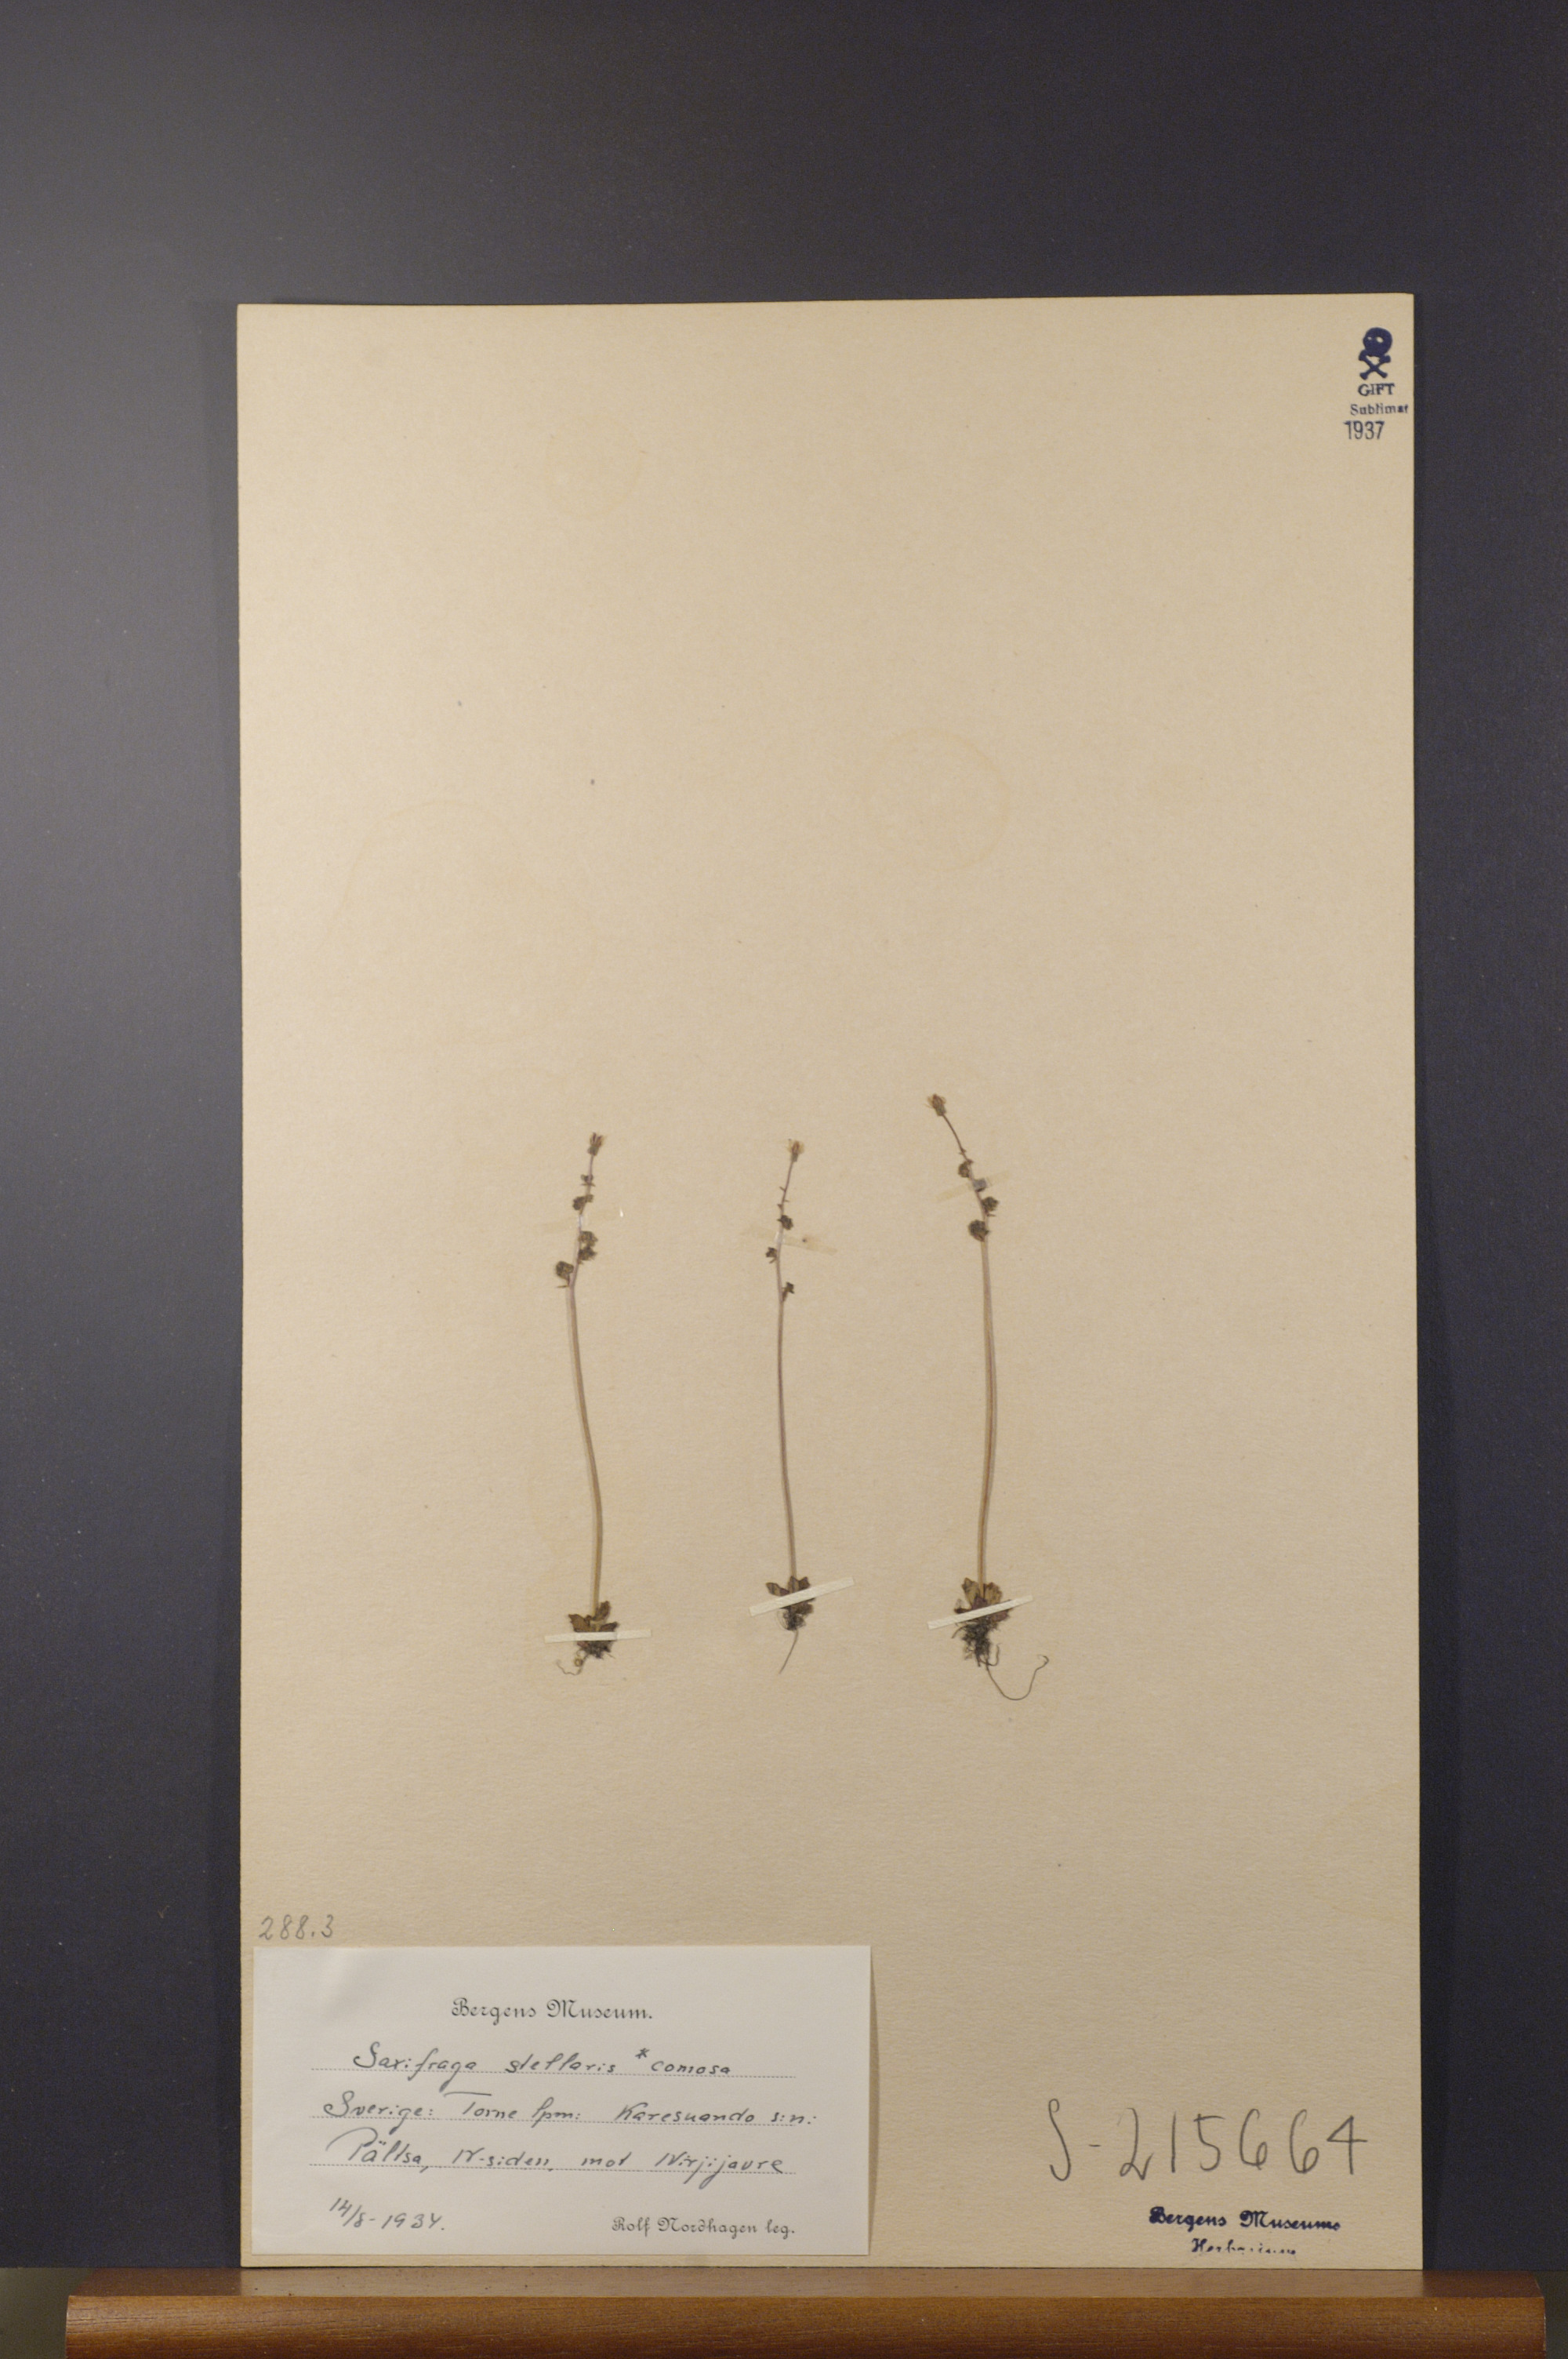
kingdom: Plantae
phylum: Tracheophyta
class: Magnoliopsida
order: Saxifragales
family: Saxifragaceae
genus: Micranthes
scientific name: Micranthes foliolosa
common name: Leafystem saxifrage
